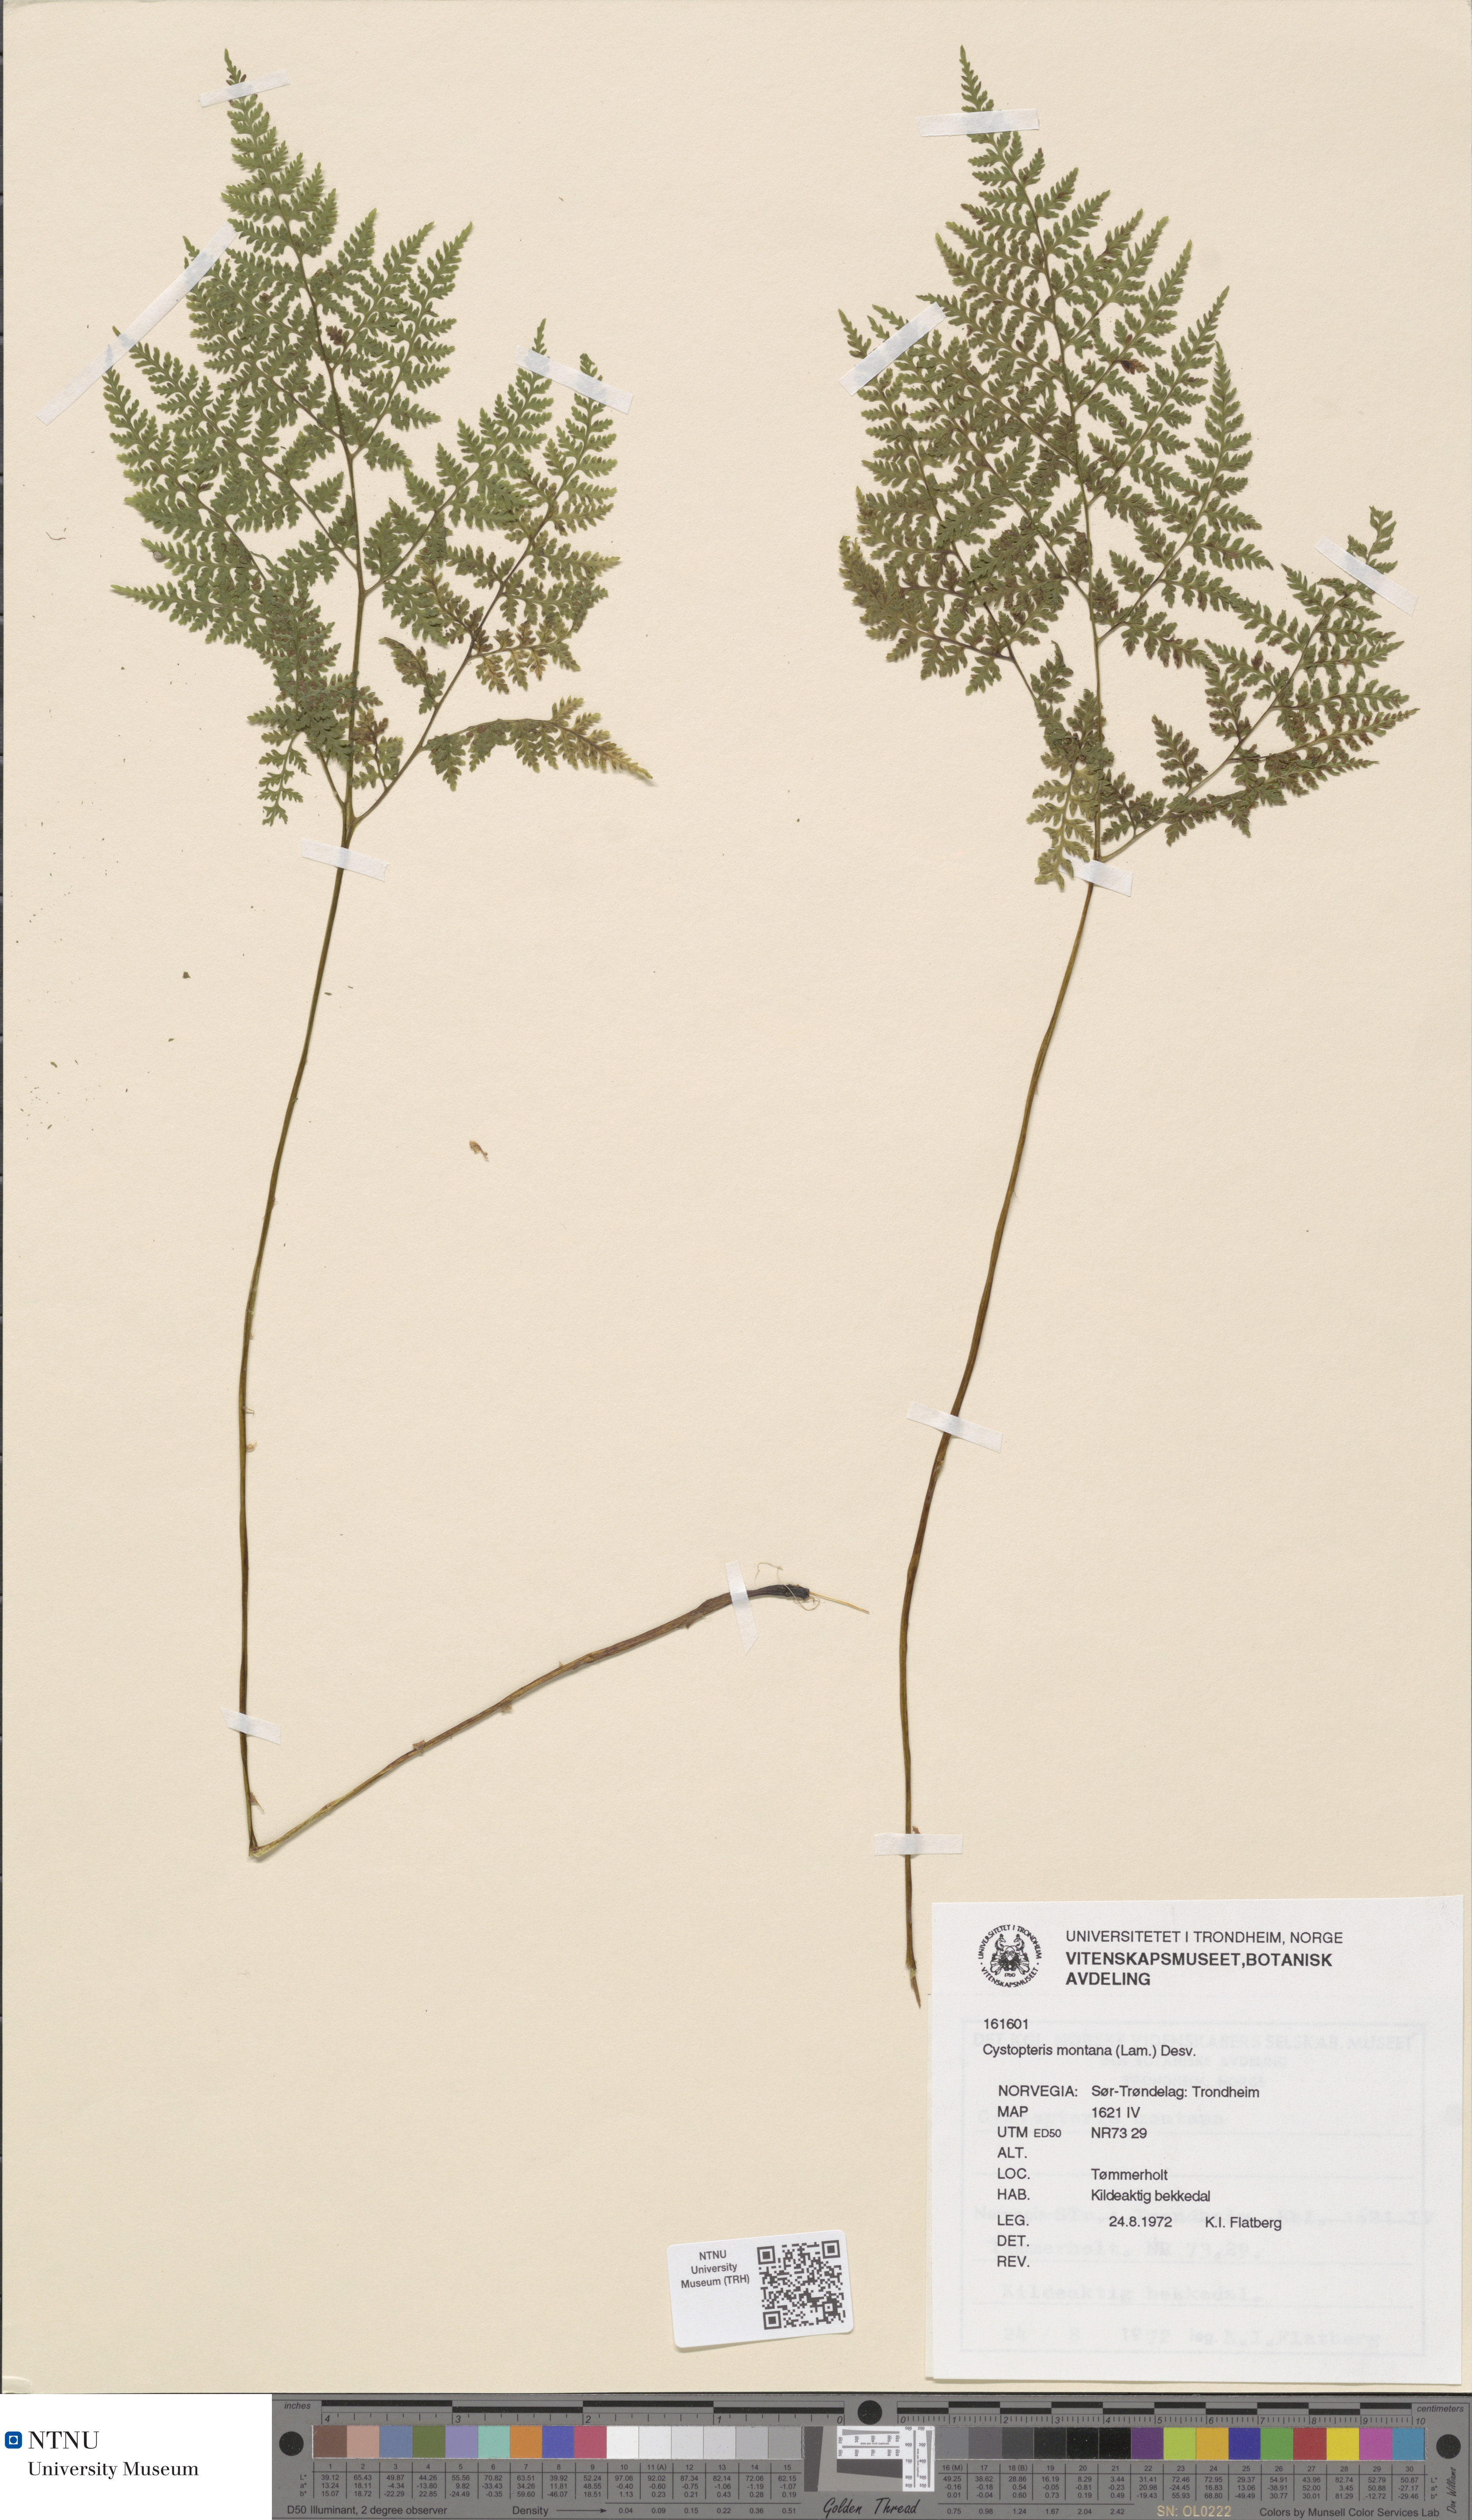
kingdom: Plantae
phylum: Tracheophyta
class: Polypodiopsida
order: Polypodiales
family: Cystopteridaceae
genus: Cystopteris
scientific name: Cystopteris montana
